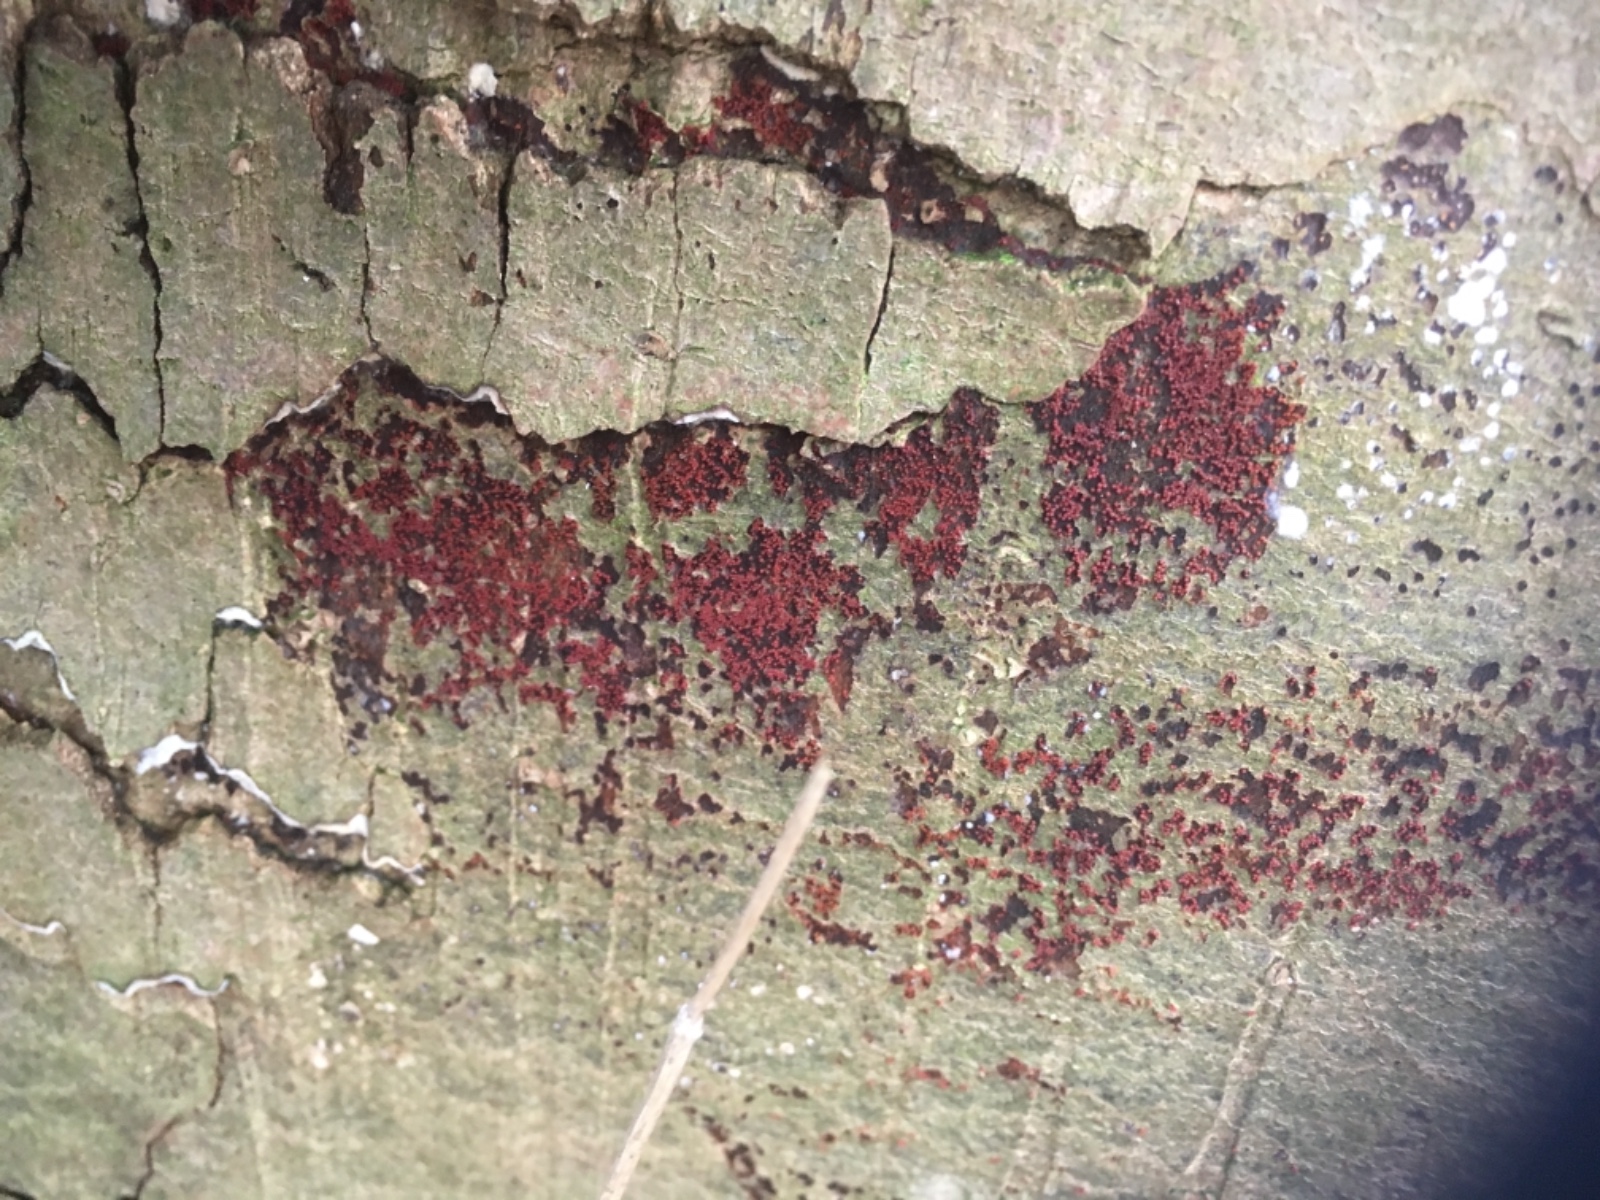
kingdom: Fungi
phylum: Ascomycota
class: Sordariomycetes
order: Hypocreales
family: Nectriaceae
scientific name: Nectriaceae
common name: cinnobersvampfamilien
